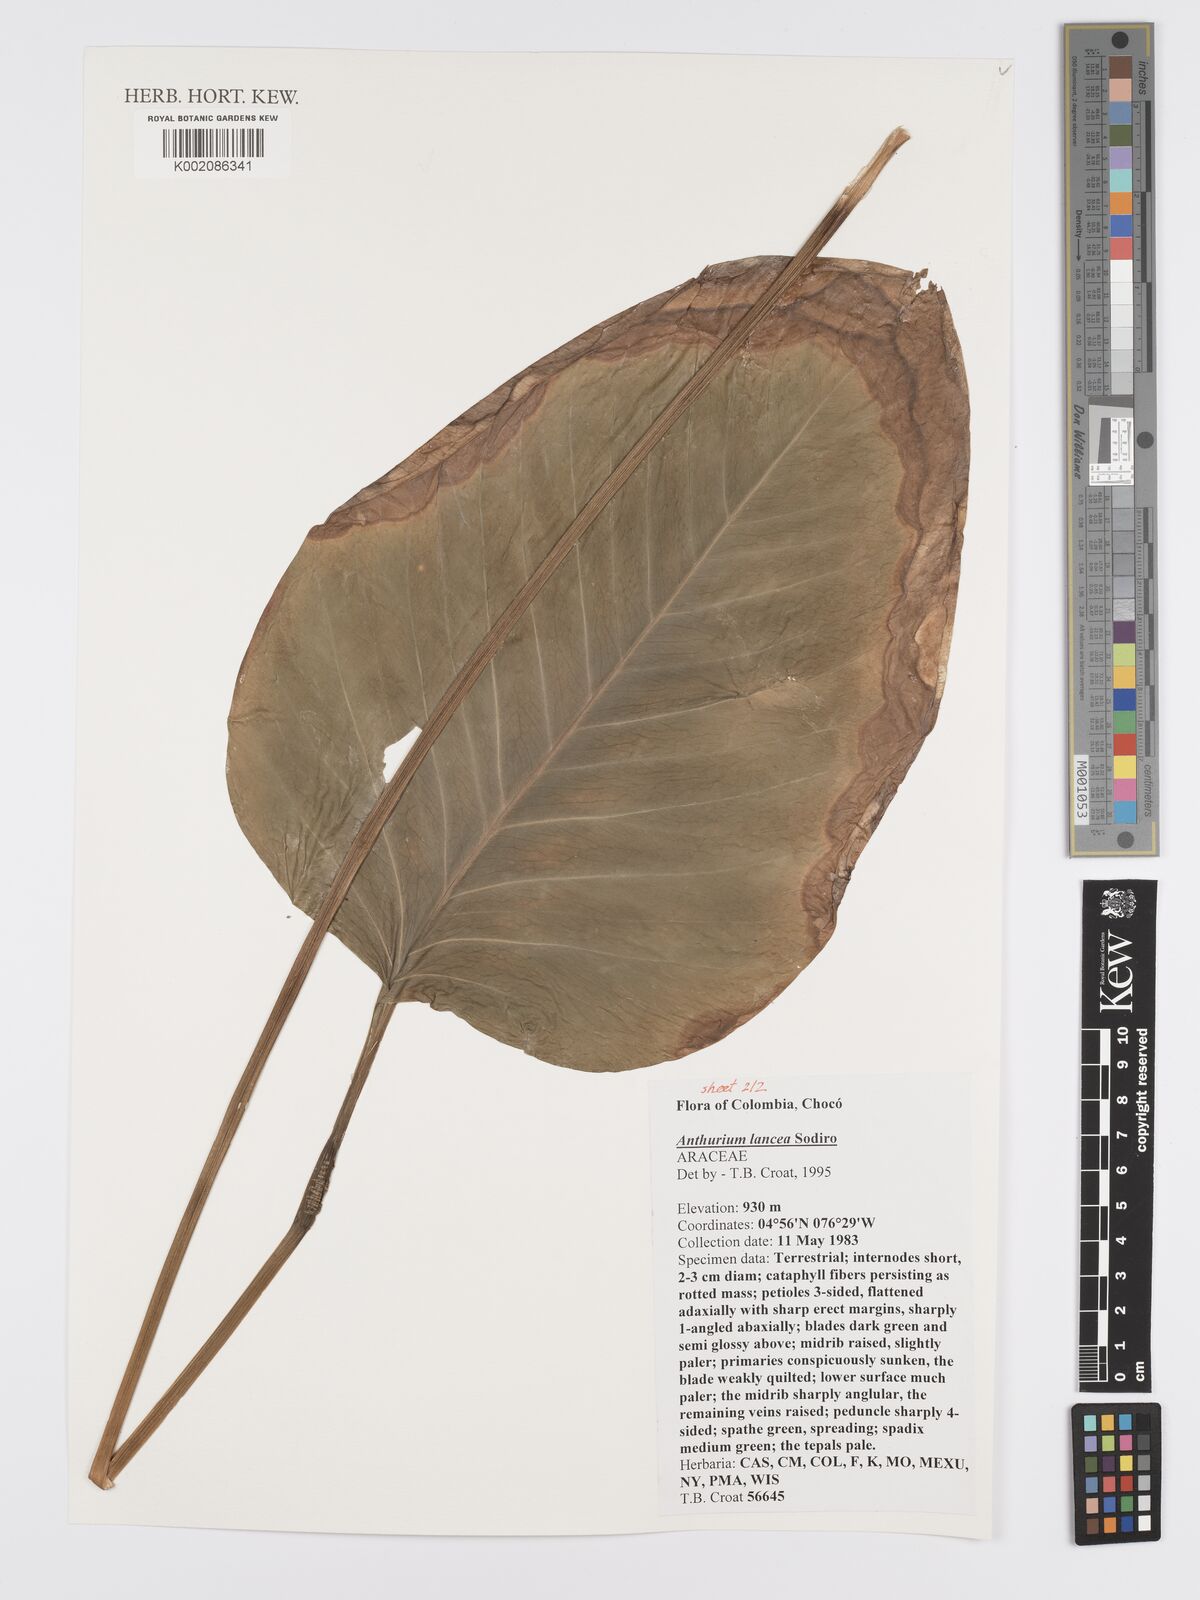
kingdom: Plantae
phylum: Tracheophyta
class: Liliopsida
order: Alismatales
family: Araceae
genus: Anthurium
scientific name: Anthurium lancea
